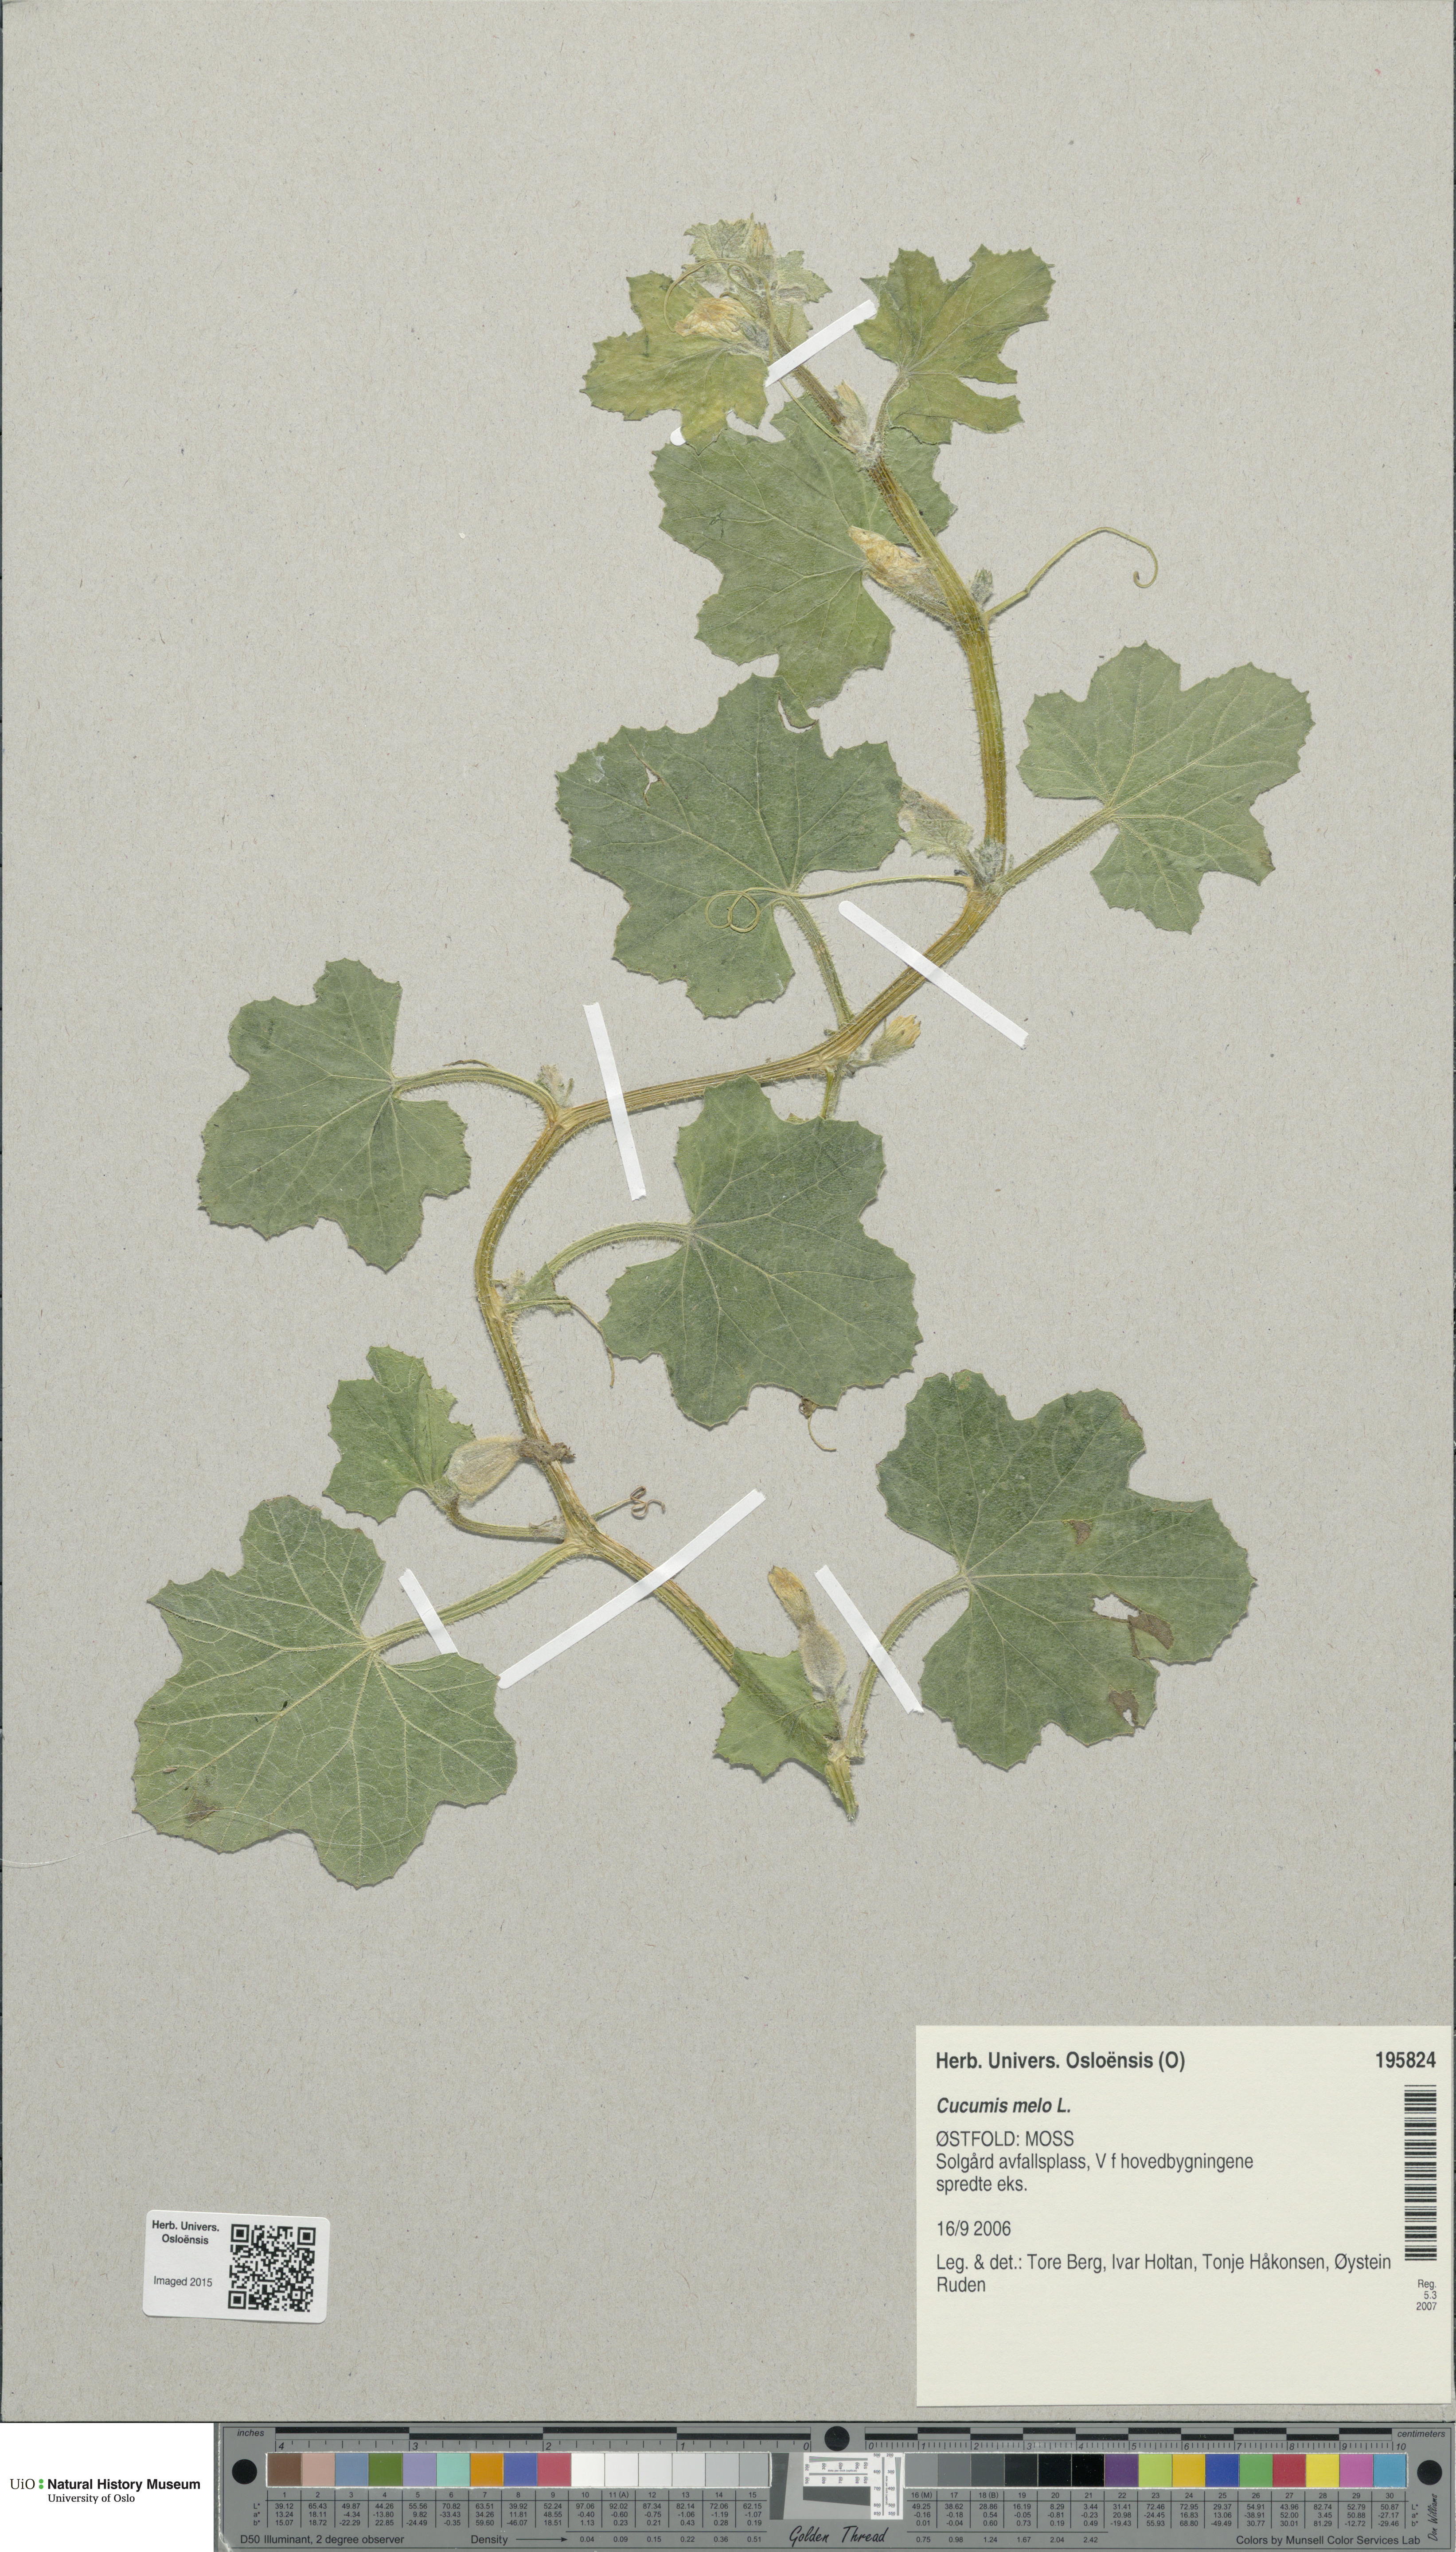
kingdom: Plantae
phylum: Tracheophyta
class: Magnoliopsida
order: Cucurbitales
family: Cucurbitaceae
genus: Cucumis
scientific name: Cucumis melo
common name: Melon
